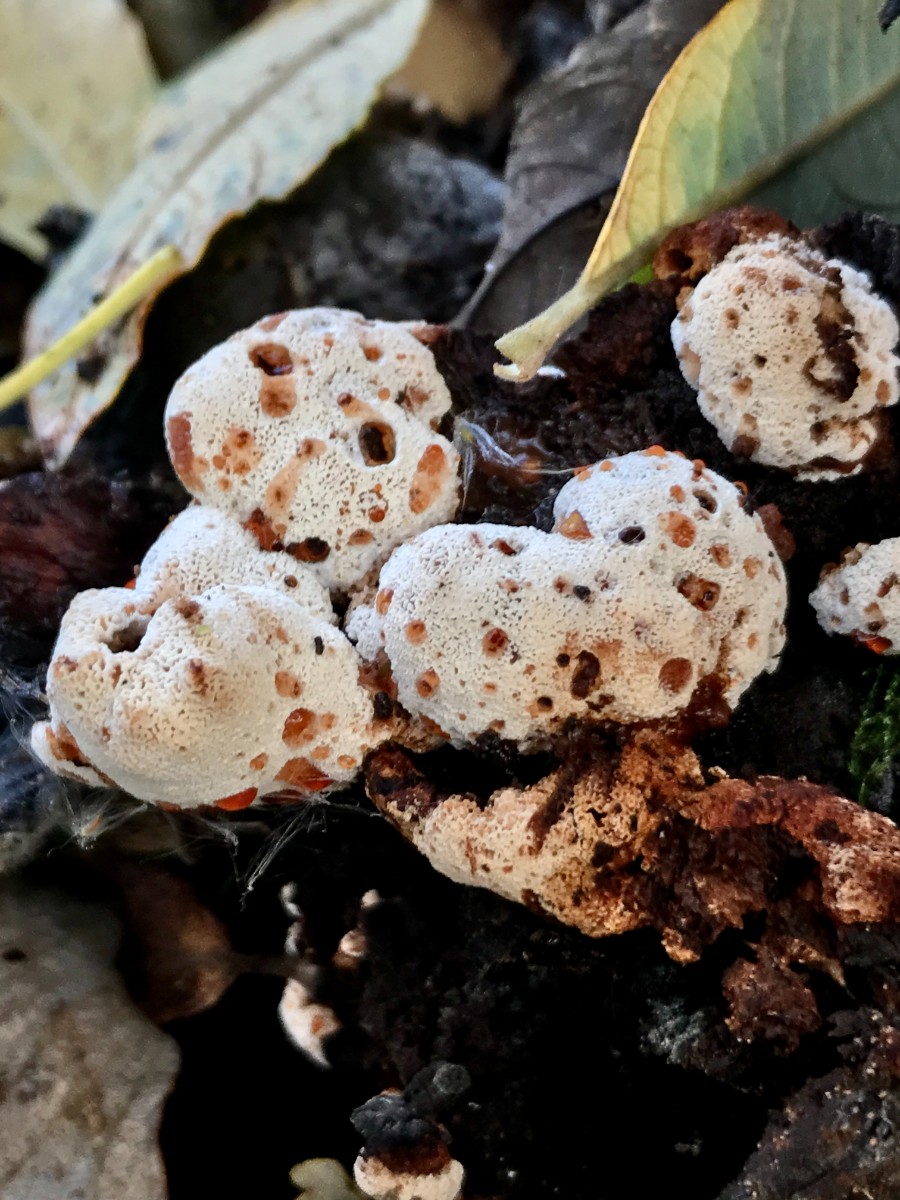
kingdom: Fungi
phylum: Basidiomycota
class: Agaricomycetes
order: Polyporales
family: Podoscyphaceae
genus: Abortiporus
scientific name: Abortiporus biennis
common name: rødmende pjalteporesvamp
